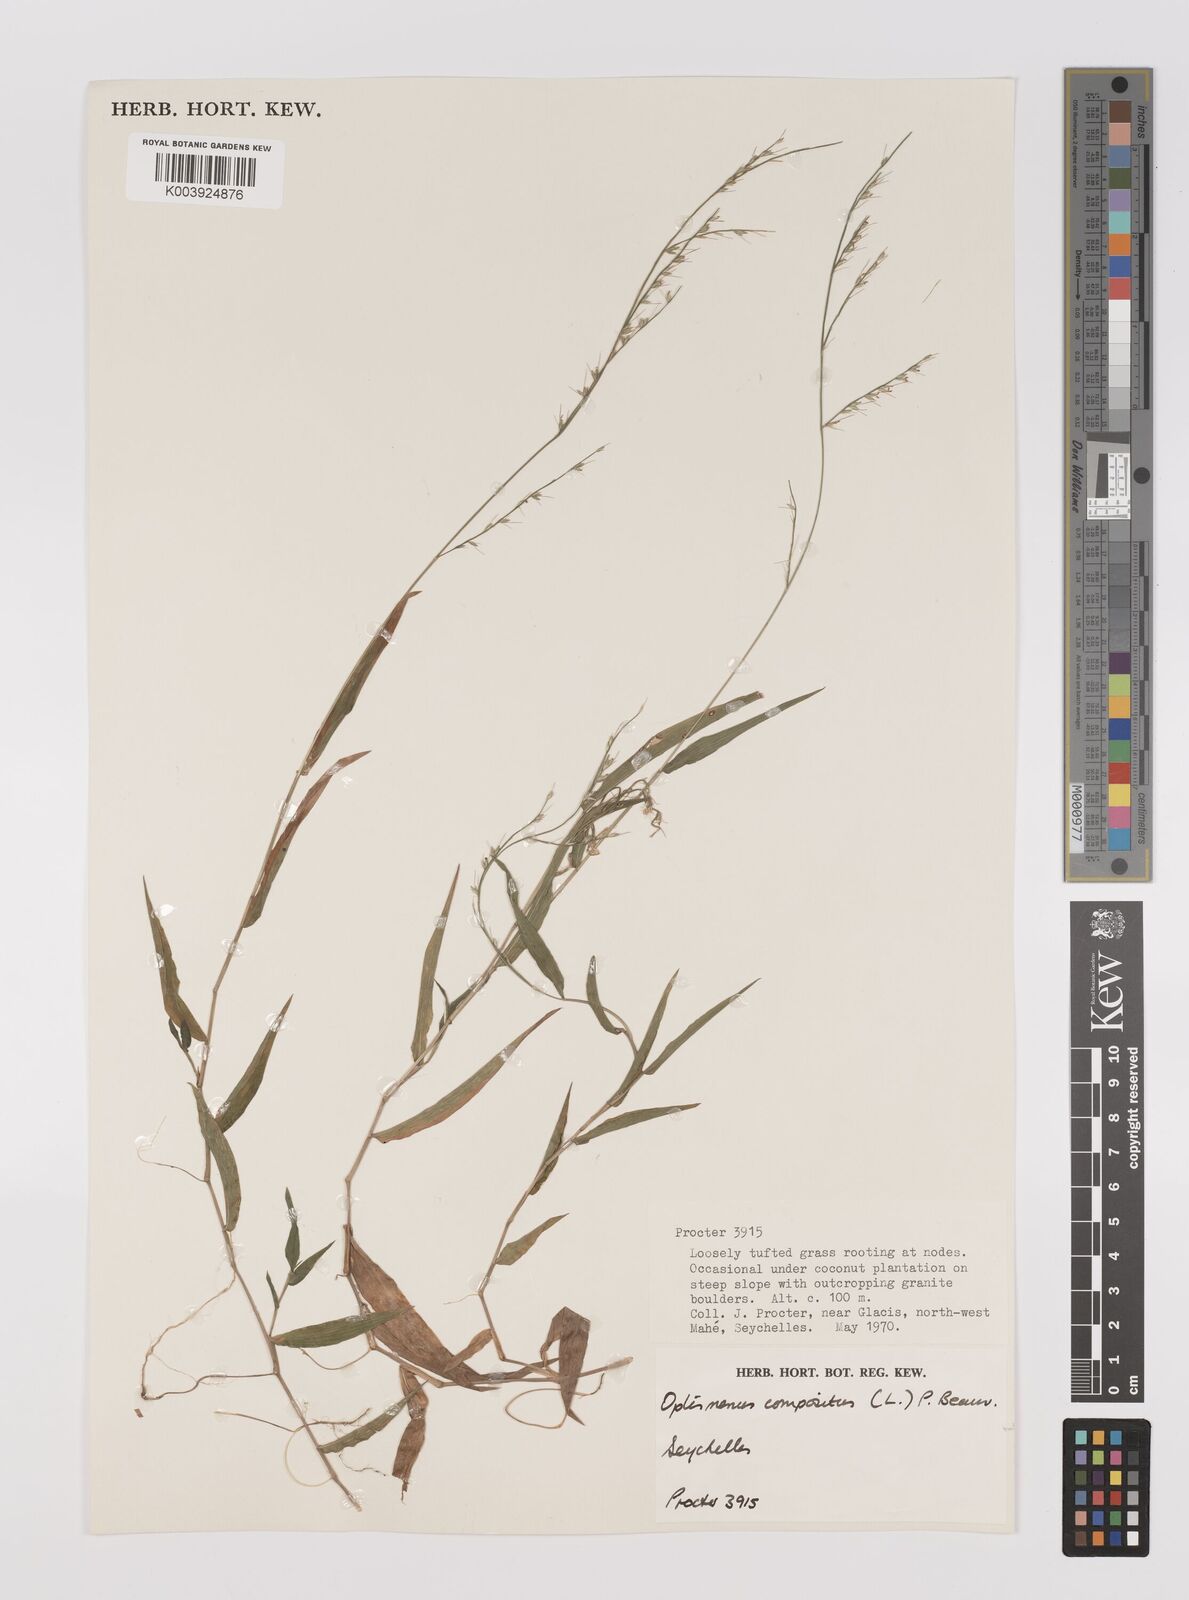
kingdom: Plantae
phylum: Tracheophyta
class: Liliopsida
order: Poales
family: Poaceae
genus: Oplismenus
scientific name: Oplismenus compositus
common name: Running mountain grass
